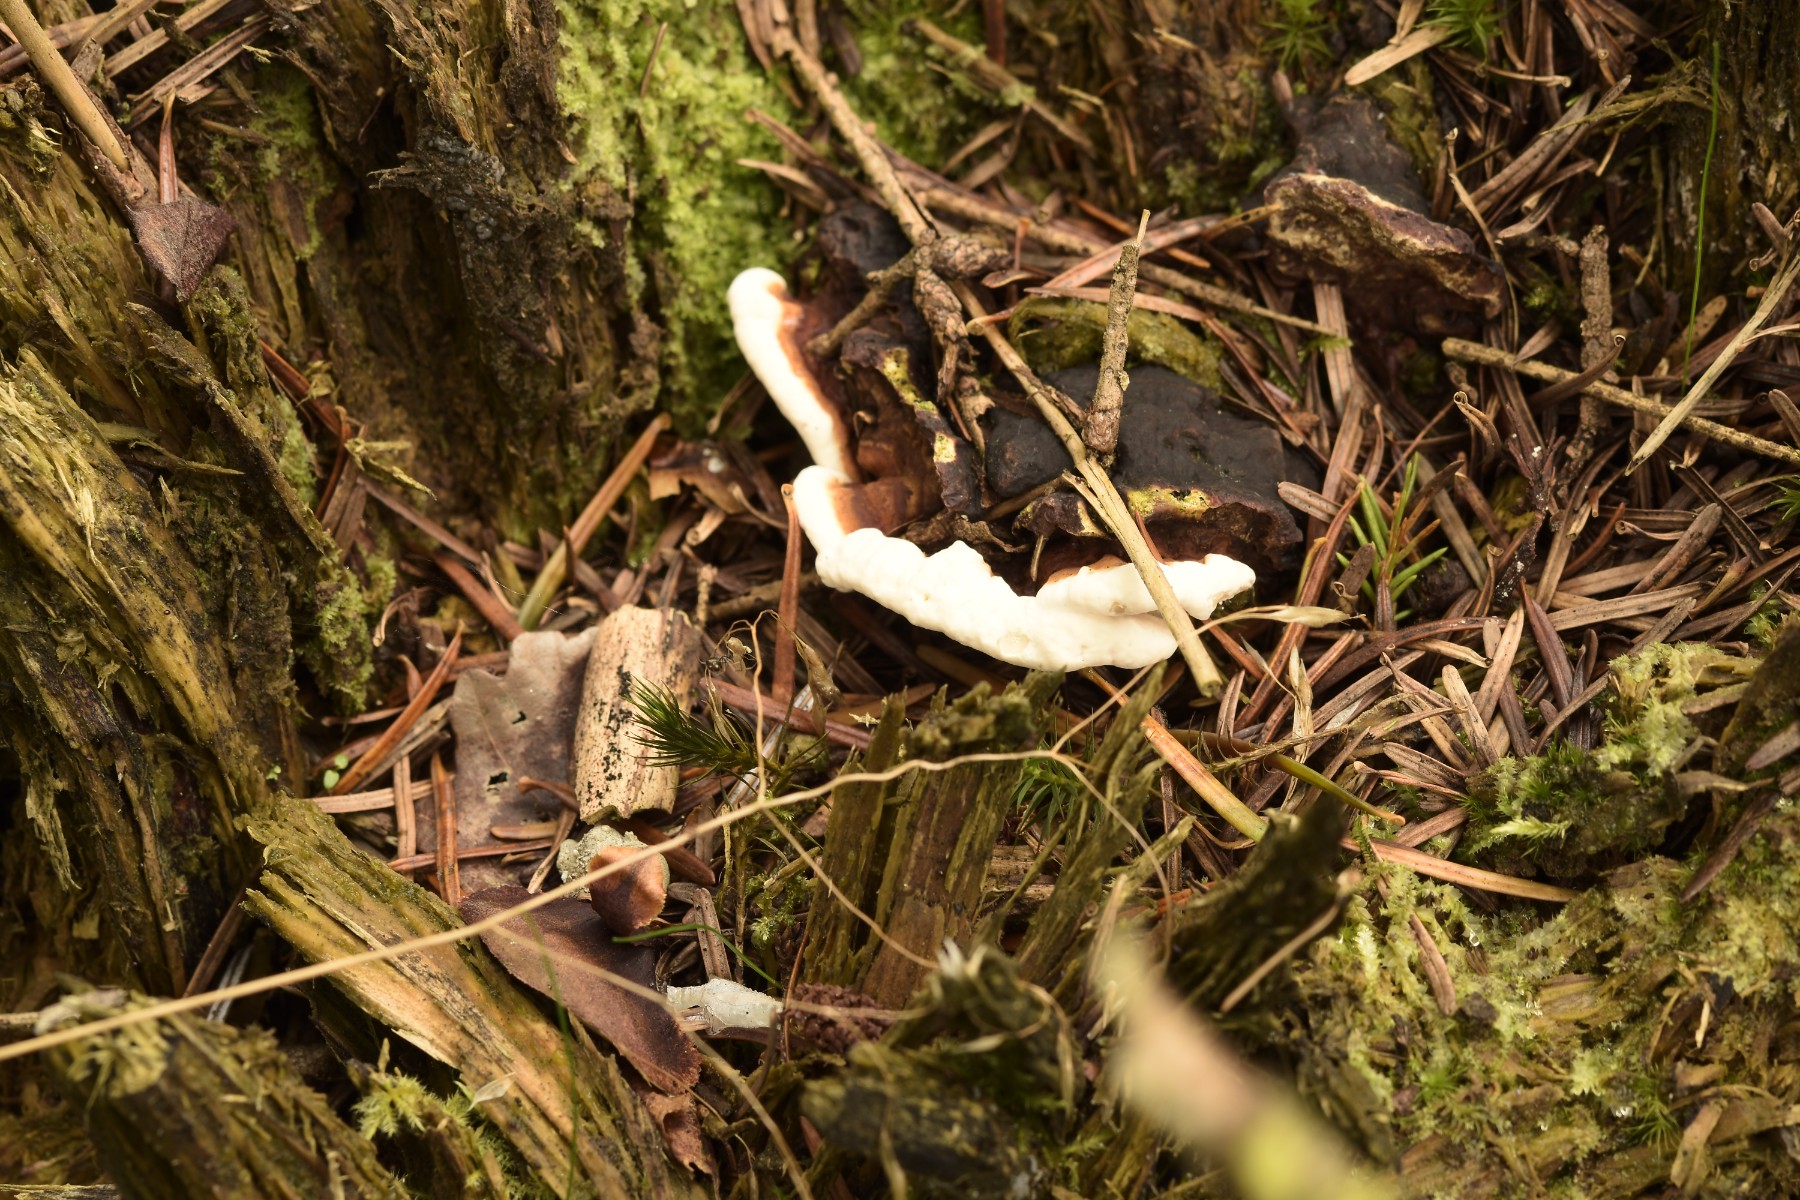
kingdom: Fungi
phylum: Basidiomycota
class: Agaricomycetes
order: Russulales
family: Bondarzewiaceae
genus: Heterobasidion
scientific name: Heterobasidion annosum
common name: almindelig rodfordærver
